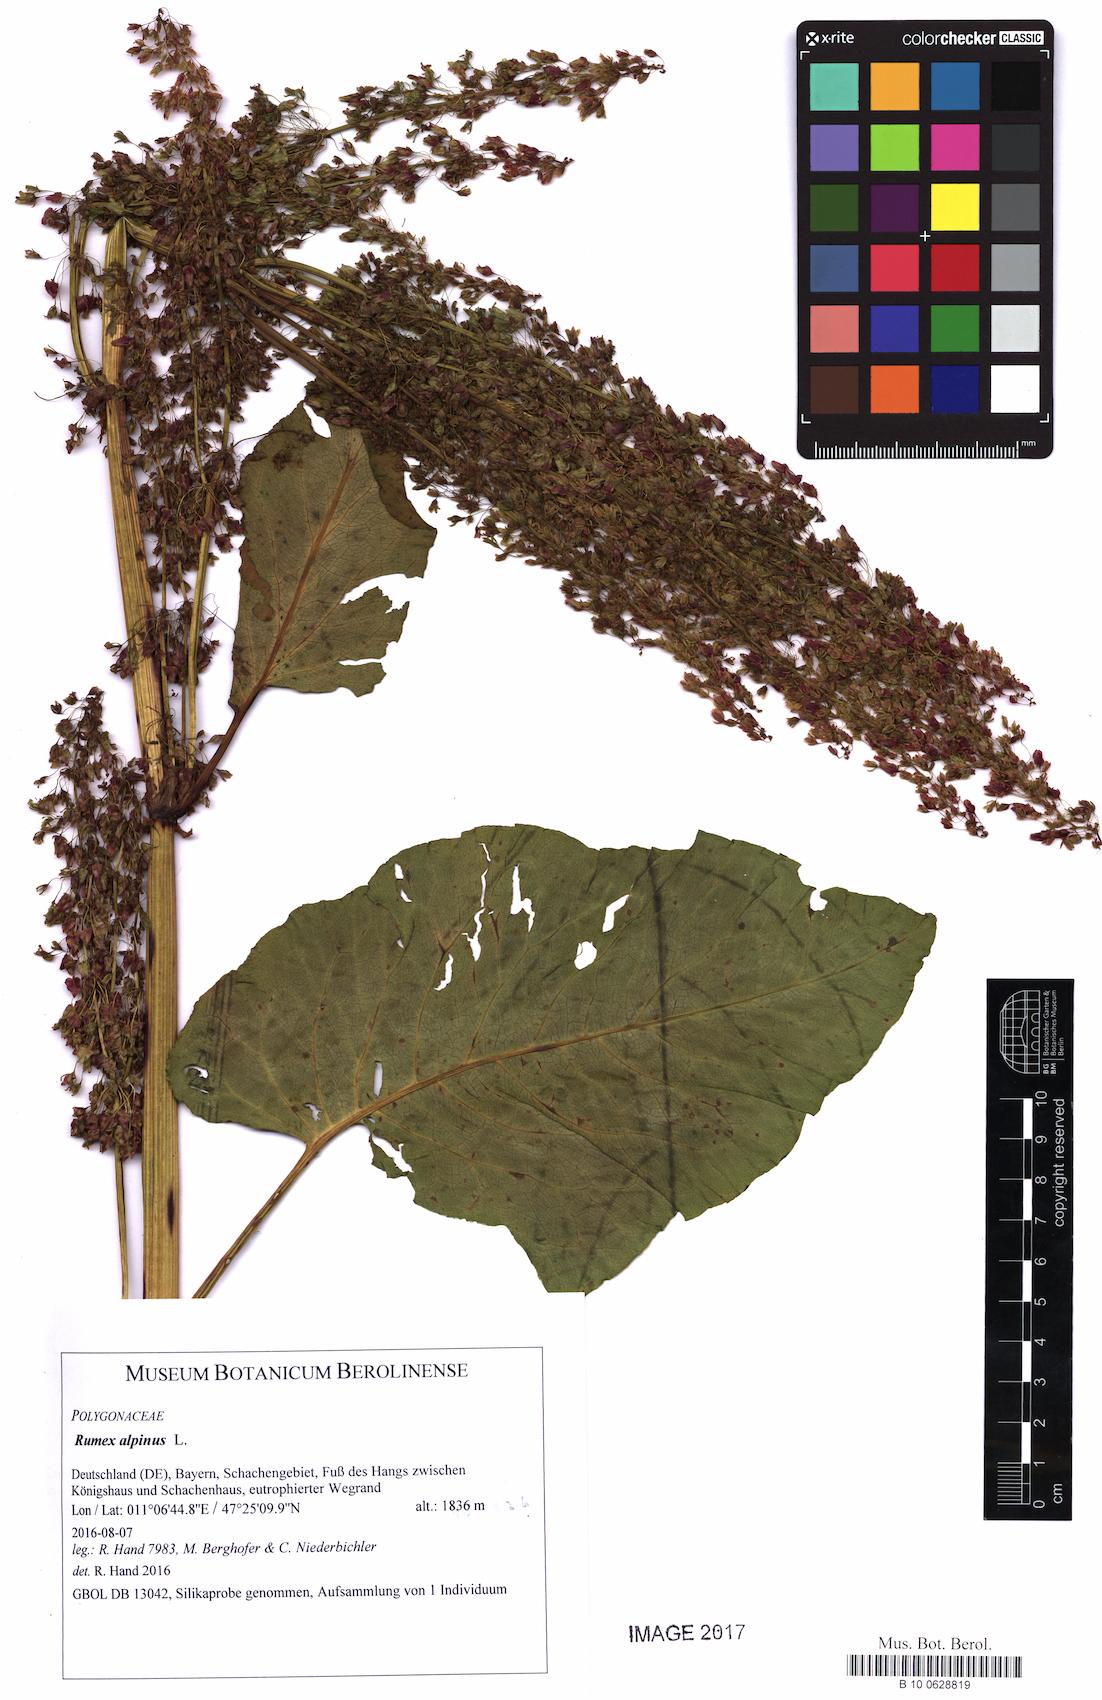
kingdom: Plantae
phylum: Tracheophyta
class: Magnoliopsida
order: Caryophyllales
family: Polygonaceae
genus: Rumex
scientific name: Rumex alpinus
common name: Alpine dock
